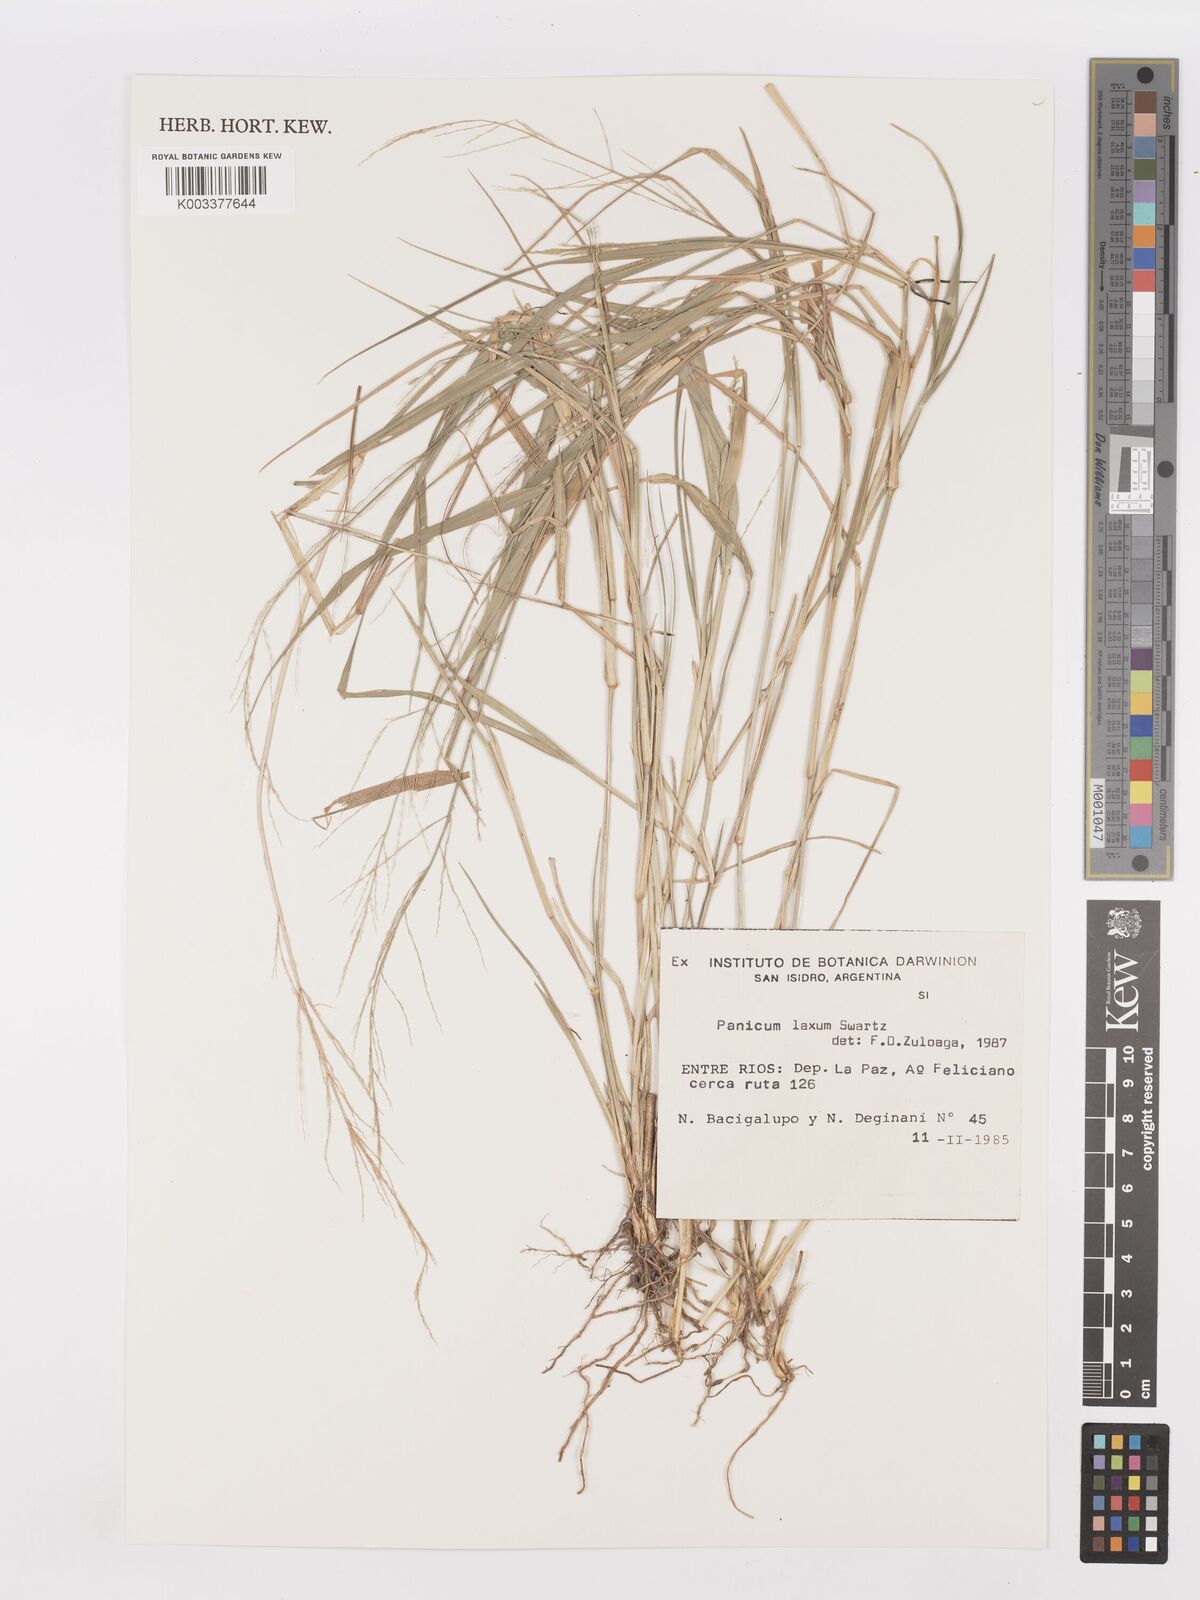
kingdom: Plantae
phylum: Tracheophyta
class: Liliopsida
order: Poales
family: Poaceae
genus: Steinchisma
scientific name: Steinchisma laxum
